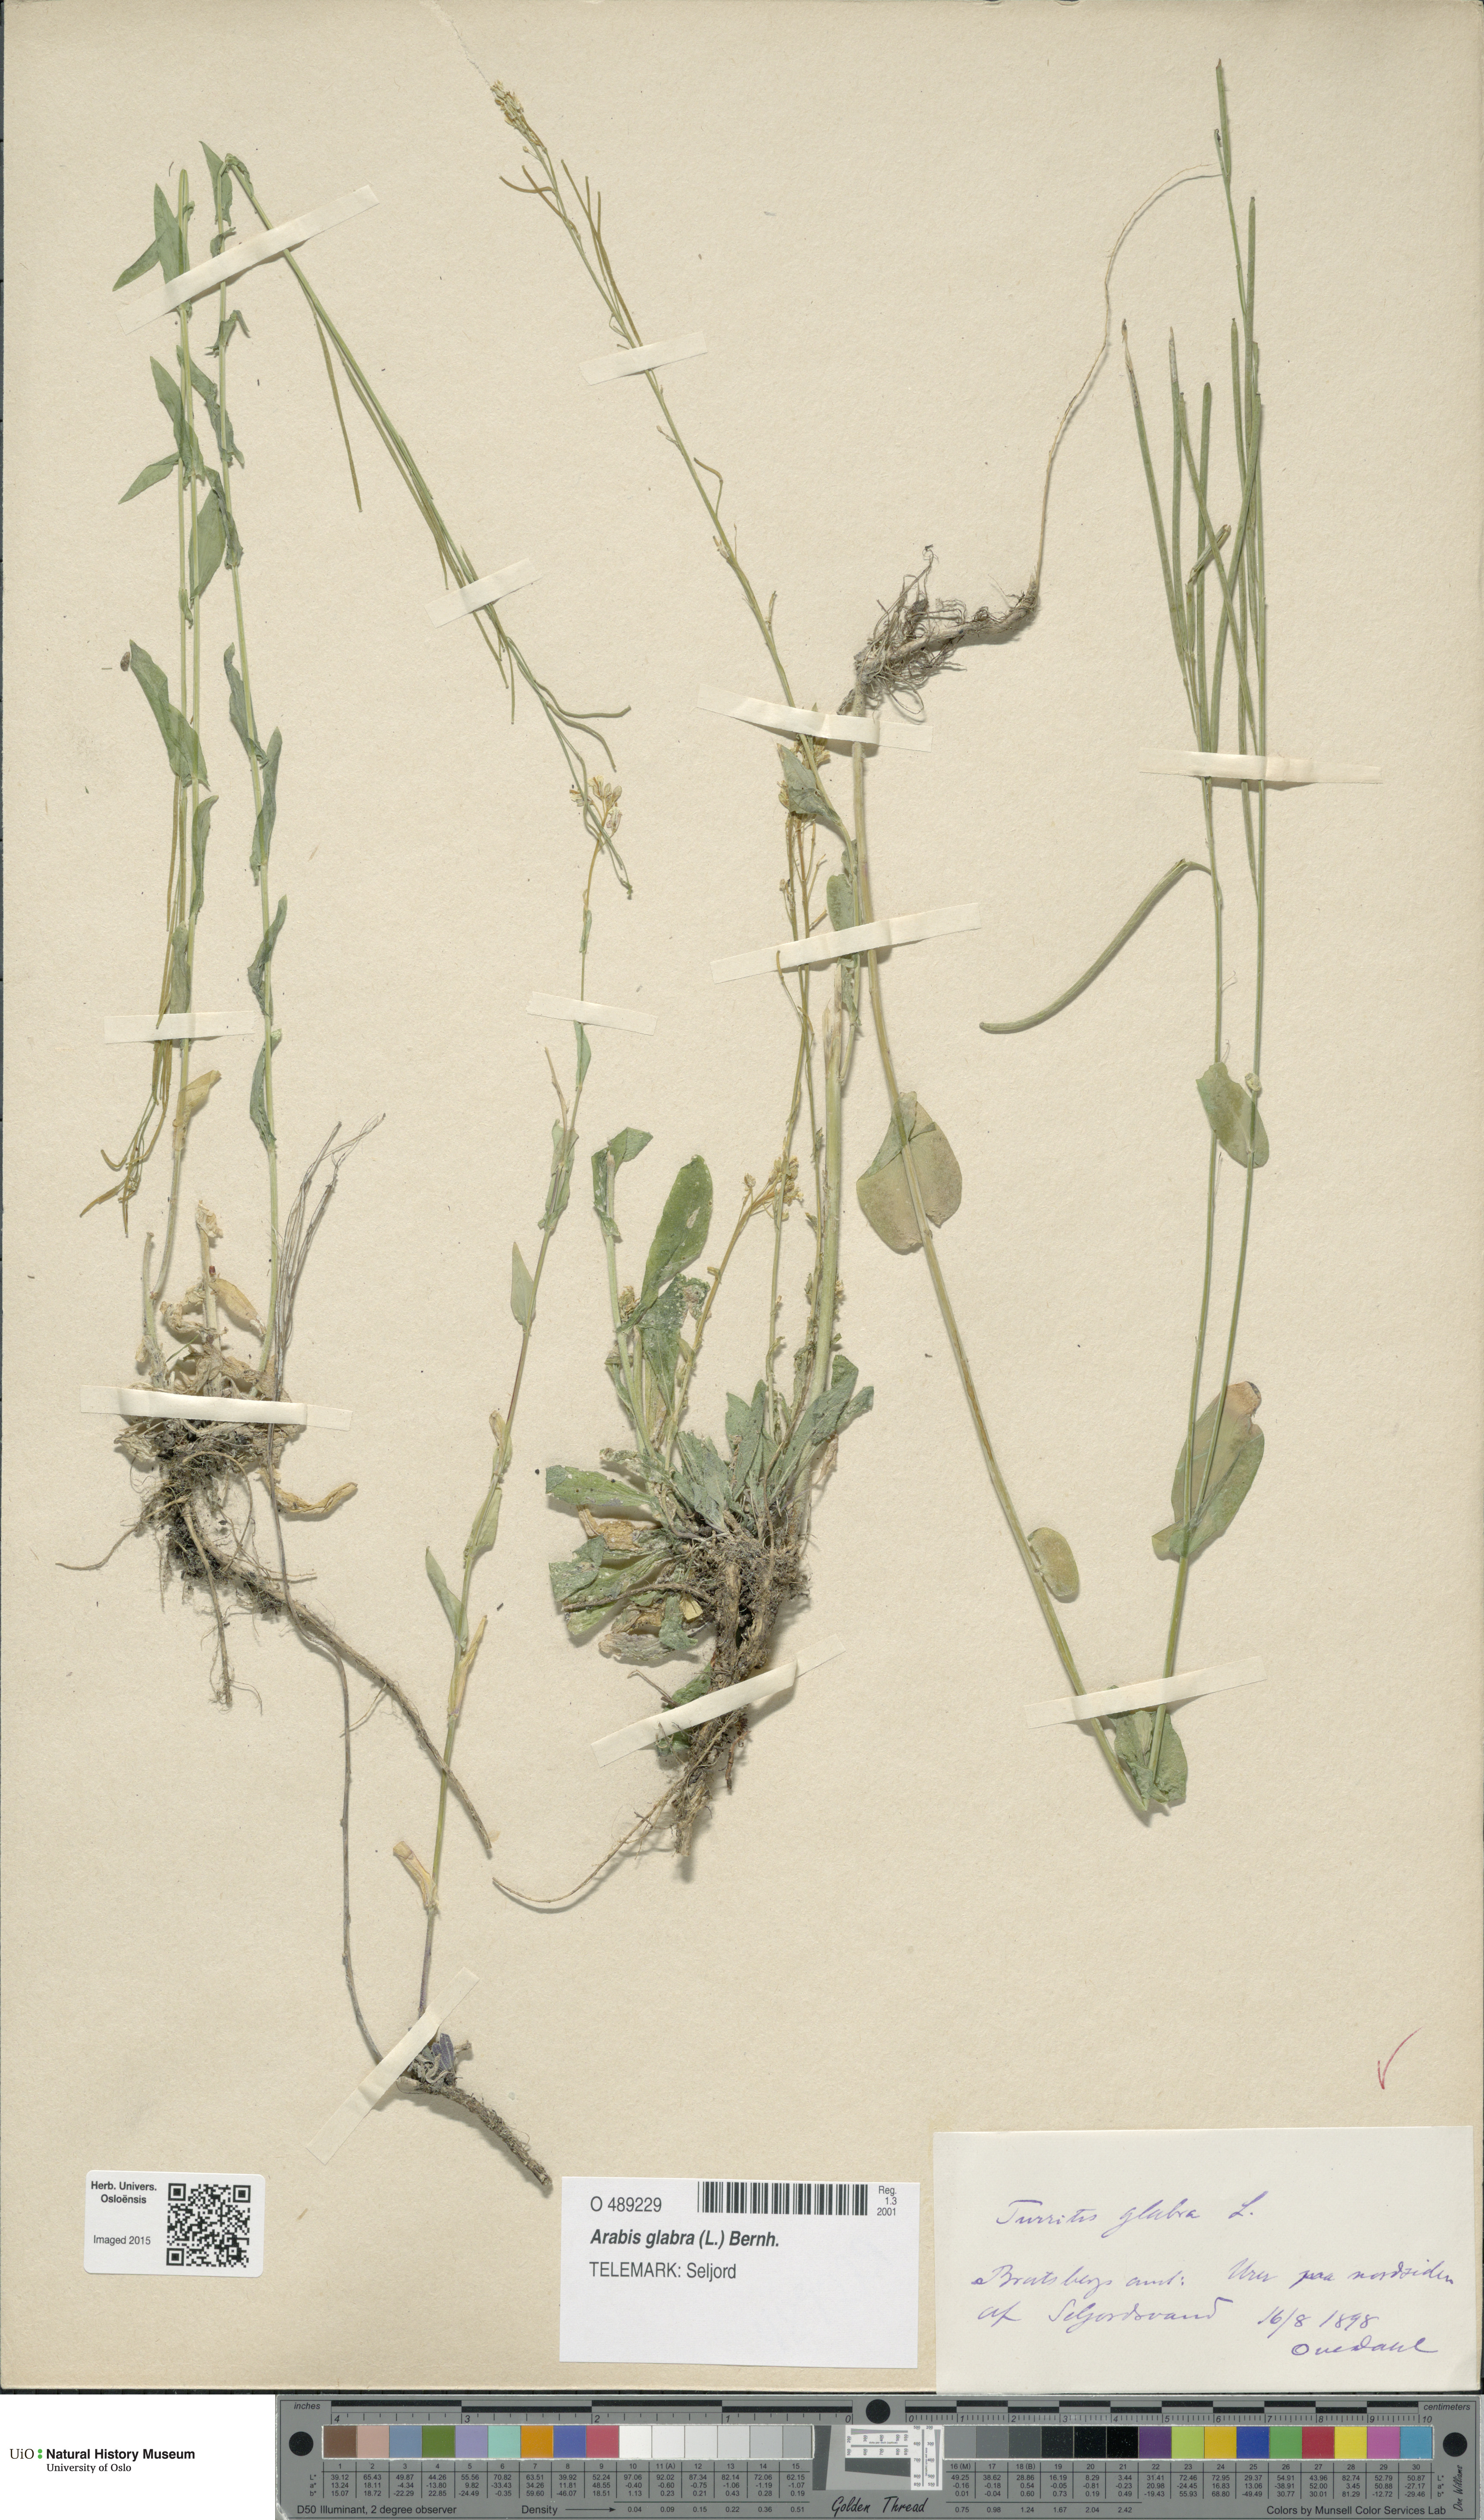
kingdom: Plantae
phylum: Tracheophyta
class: Magnoliopsida
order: Brassicales
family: Brassicaceae
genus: Turritis
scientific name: Turritis glabra
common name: Tower rockcress
